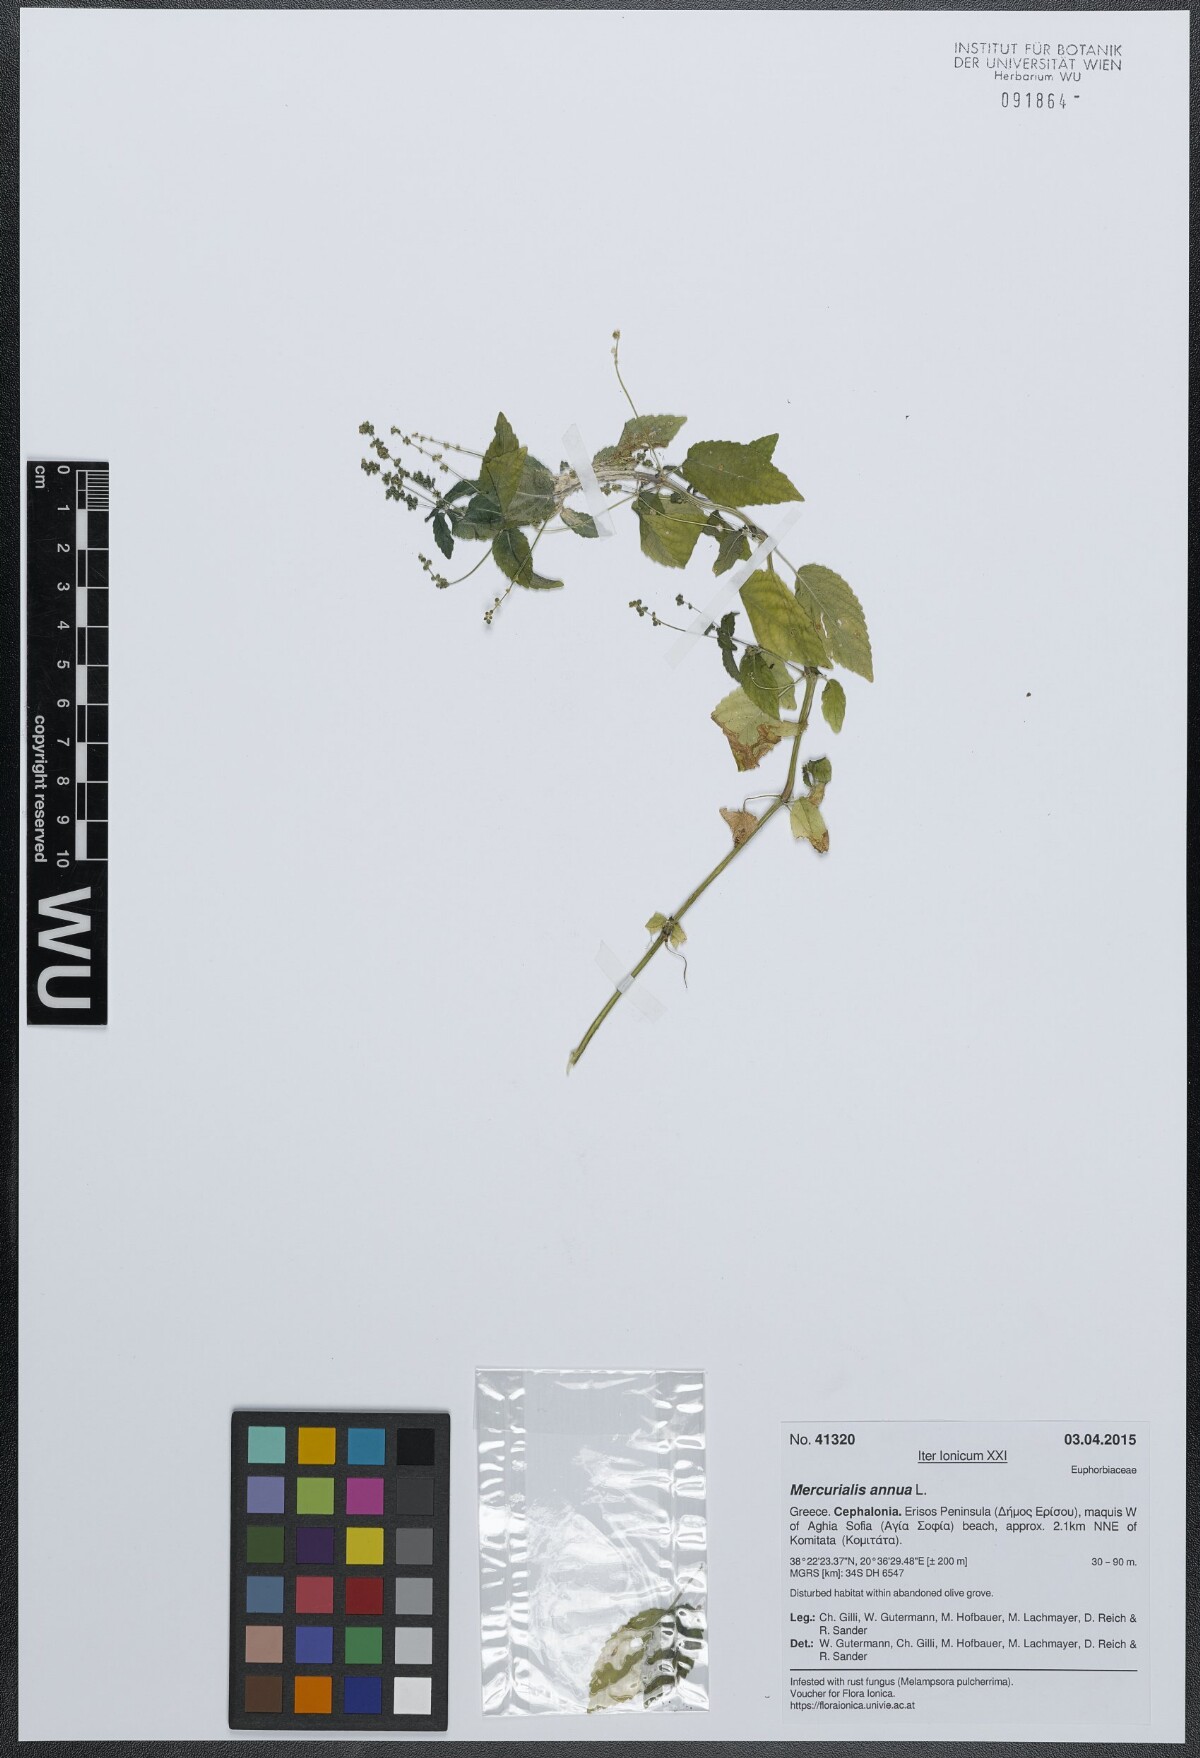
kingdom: Plantae
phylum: Tracheophyta
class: Magnoliopsida
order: Malpighiales
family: Euphorbiaceae
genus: Mercurialis
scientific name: Mercurialis annua
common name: Annual mercury
